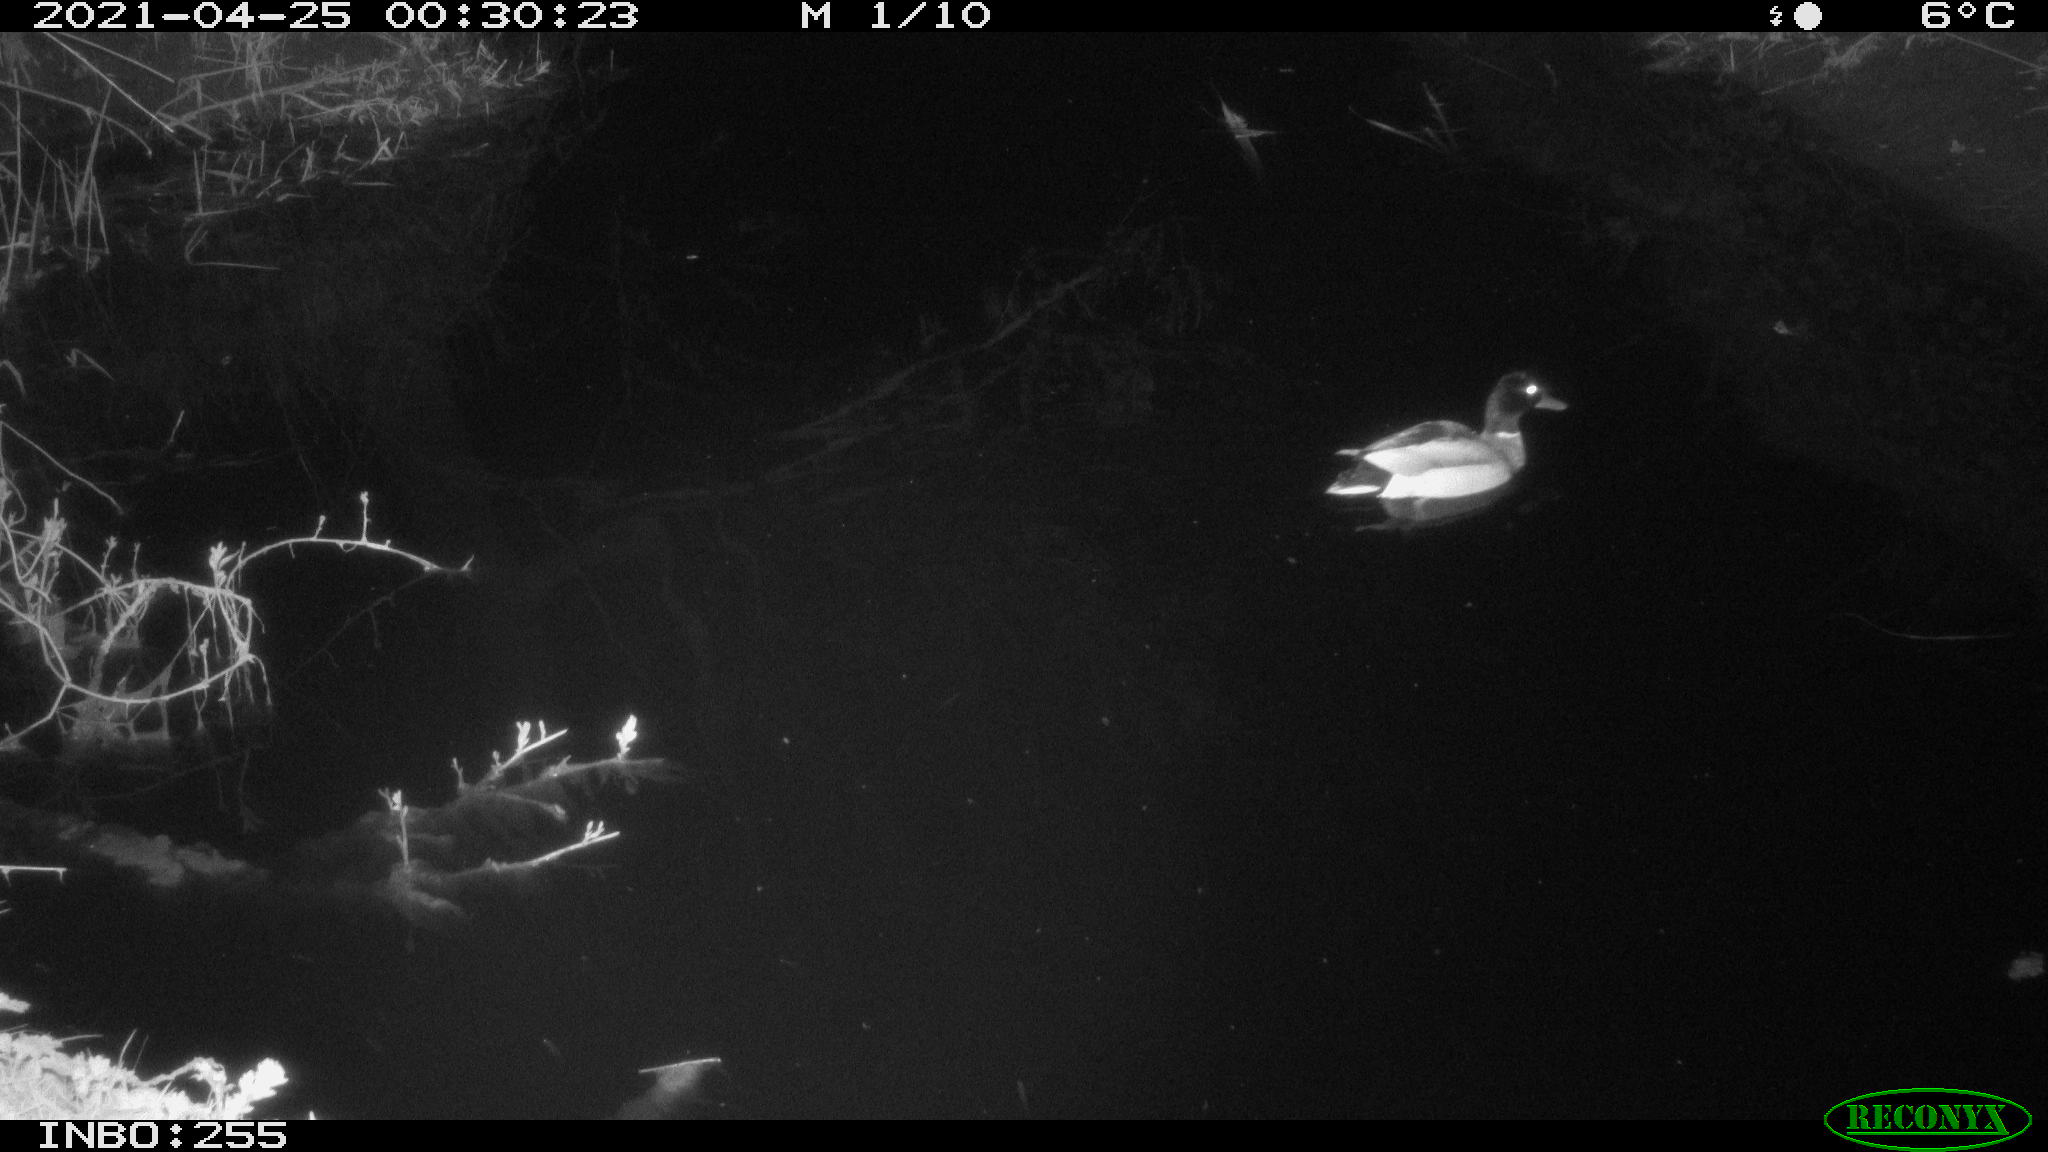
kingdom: Animalia
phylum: Chordata
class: Aves
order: Anseriformes
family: Anatidae
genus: Anas
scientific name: Anas platyrhynchos
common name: Mallard
